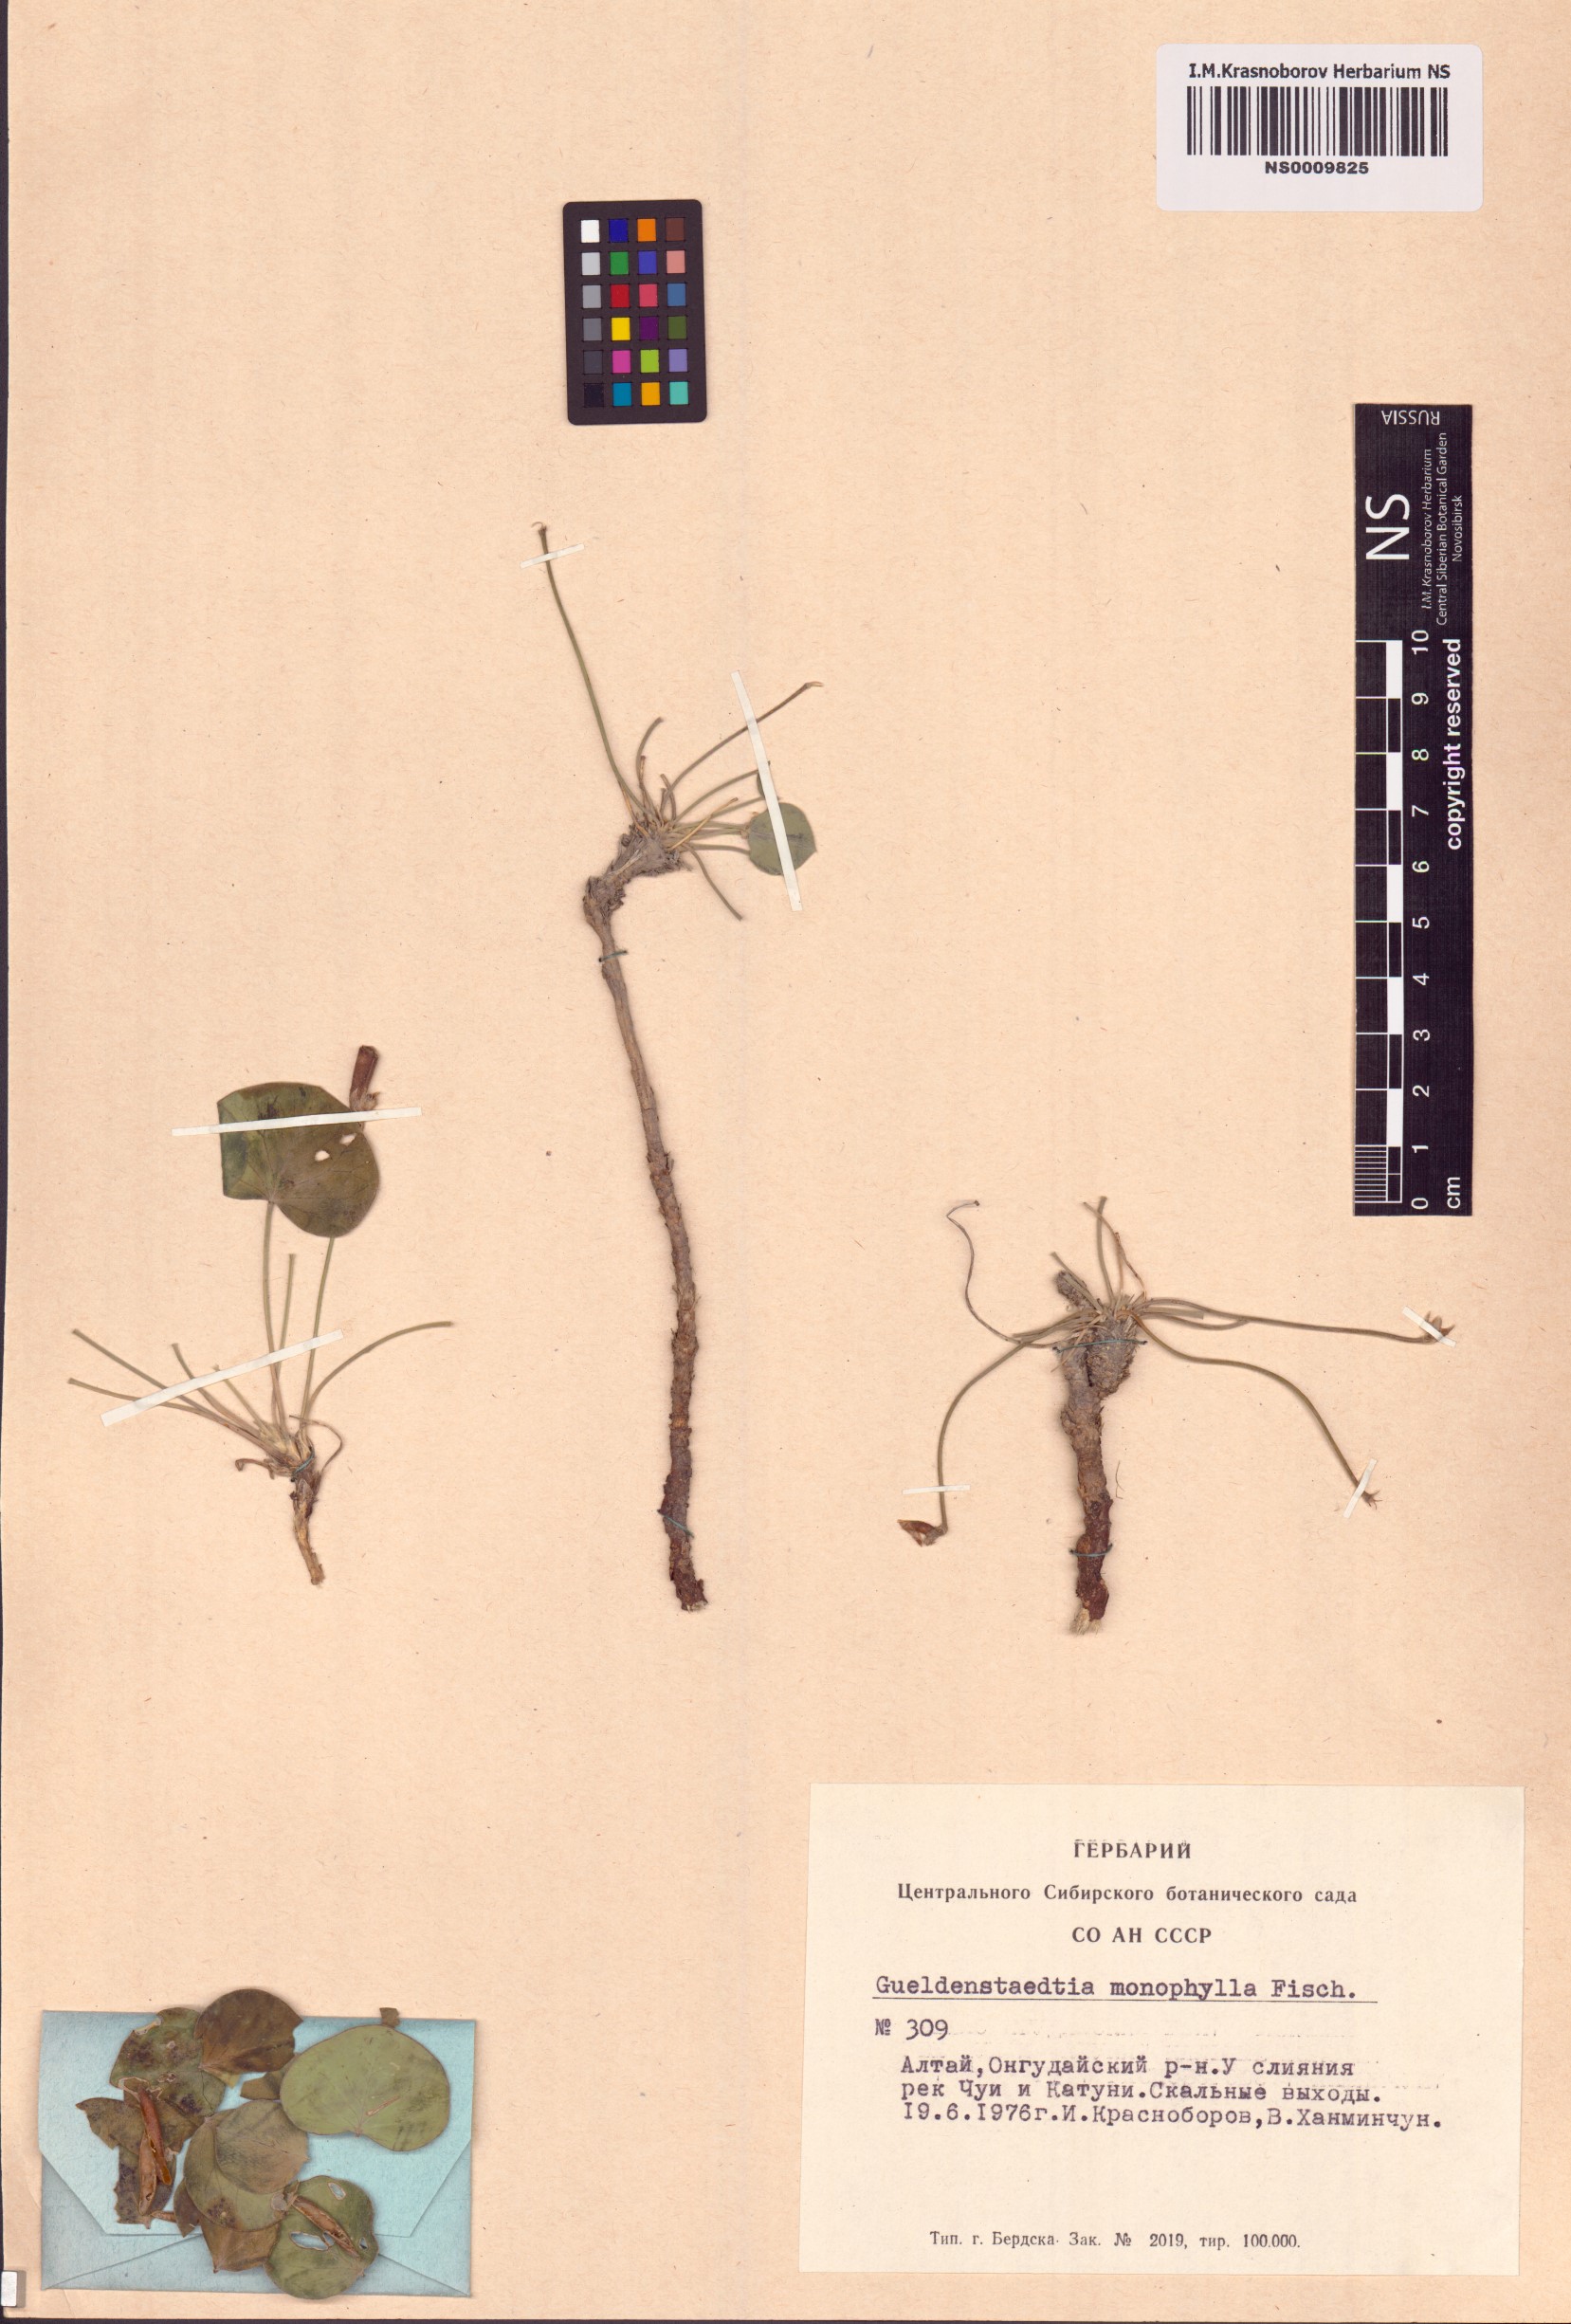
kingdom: Plantae
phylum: Tracheophyta
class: Magnoliopsida
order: Fabales
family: Fabaceae
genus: Gueldenstaedtia
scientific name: Gueldenstaedtia monophylla
